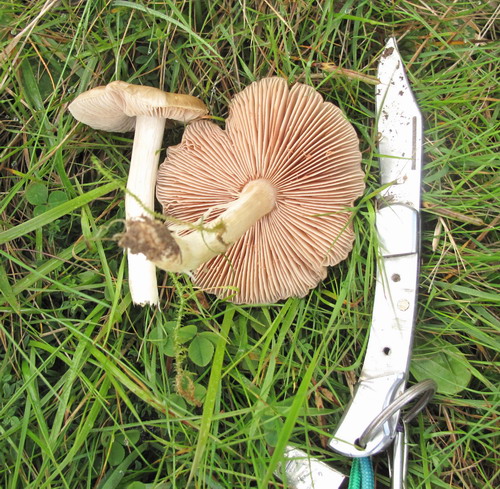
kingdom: Fungi
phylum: Basidiomycota
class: Agaricomycetes
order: Agaricales
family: Entolomataceae
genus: Entoloma
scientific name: Entoloma prunuloides
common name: mel-rødblad
